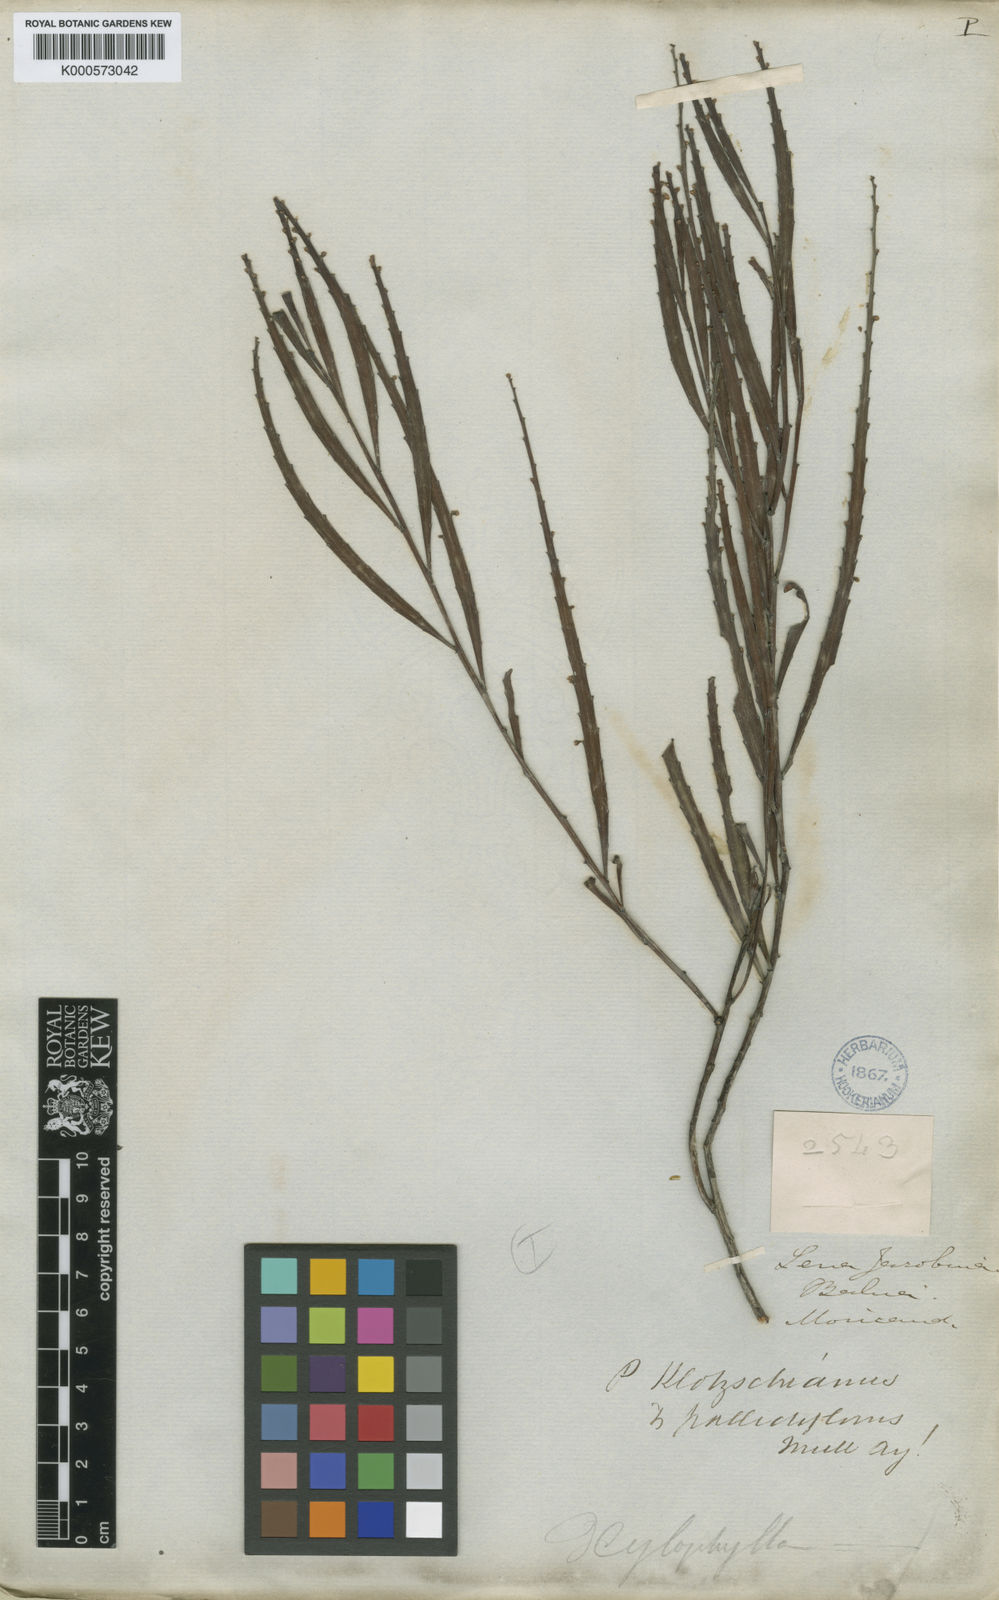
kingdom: Plantae
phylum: Tracheophyta
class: Magnoliopsida
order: Malpighiales
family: Phyllanthaceae
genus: Phyllanthus
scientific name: Phyllanthus
